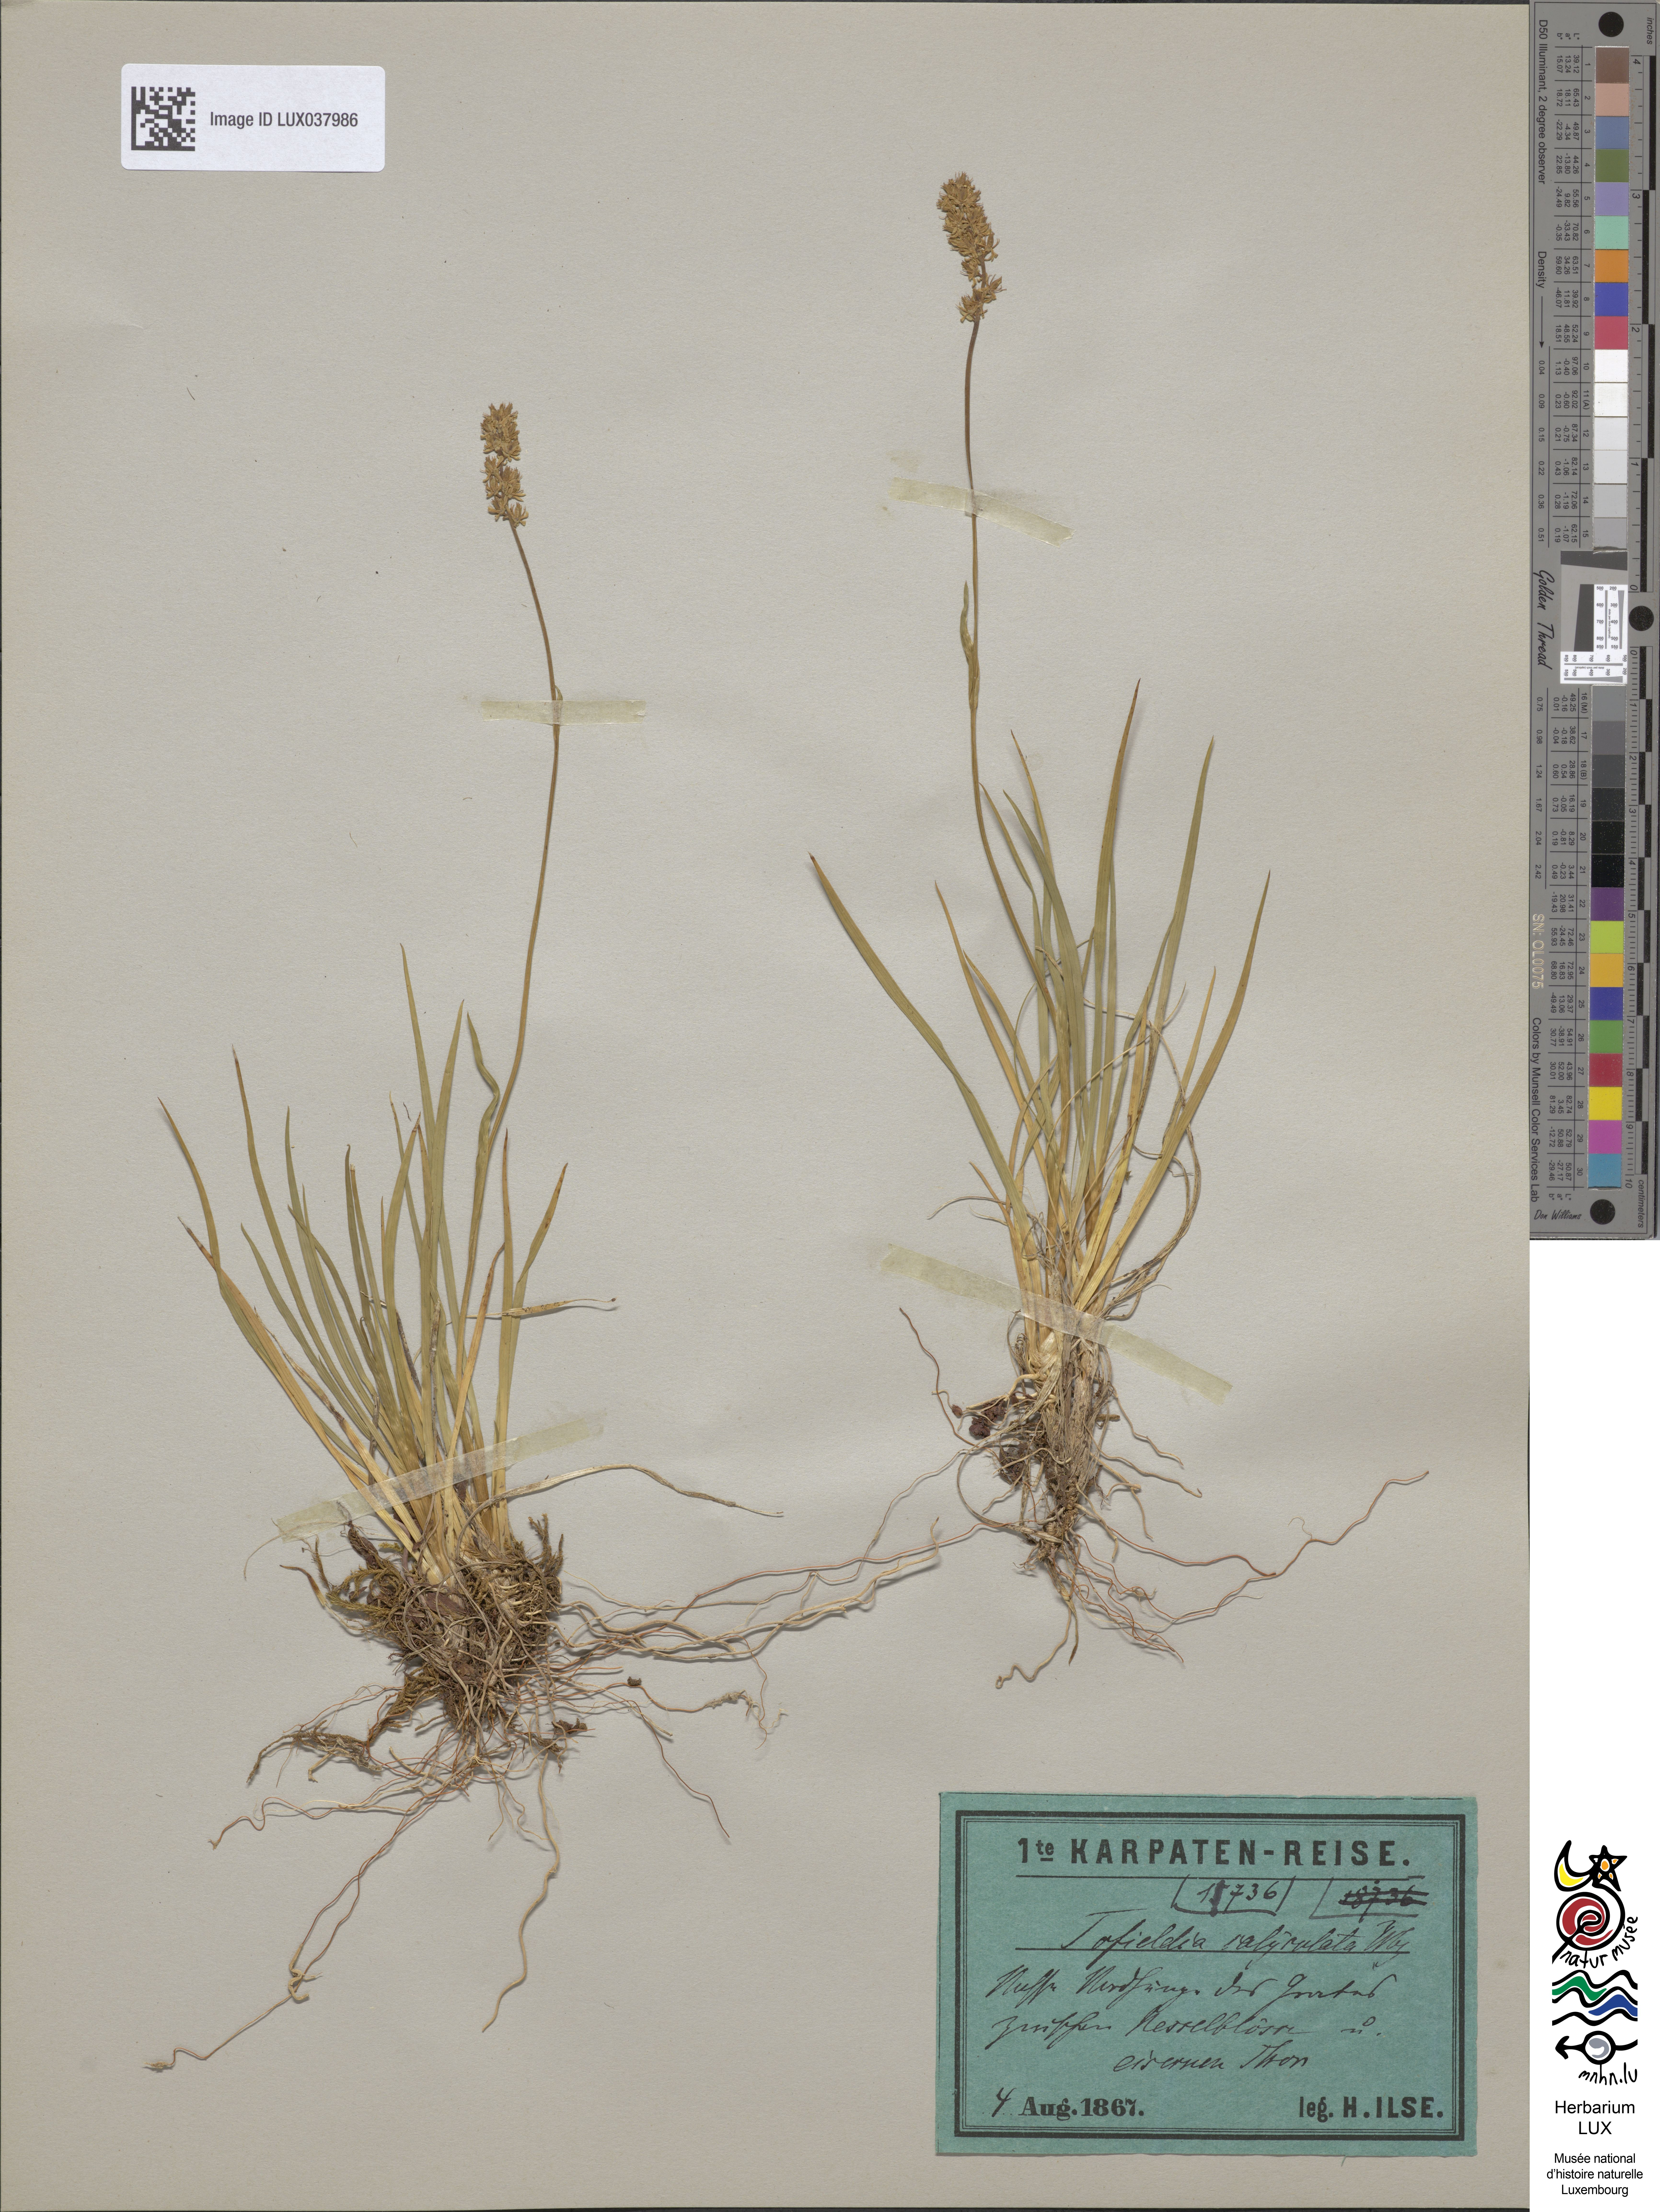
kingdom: Plantae
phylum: Tracheophyta
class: Liliopsida
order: Alismatales
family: Tofieldiaceae
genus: Tofieldia
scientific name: Tofieldia calyculata
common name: German-asphodel
